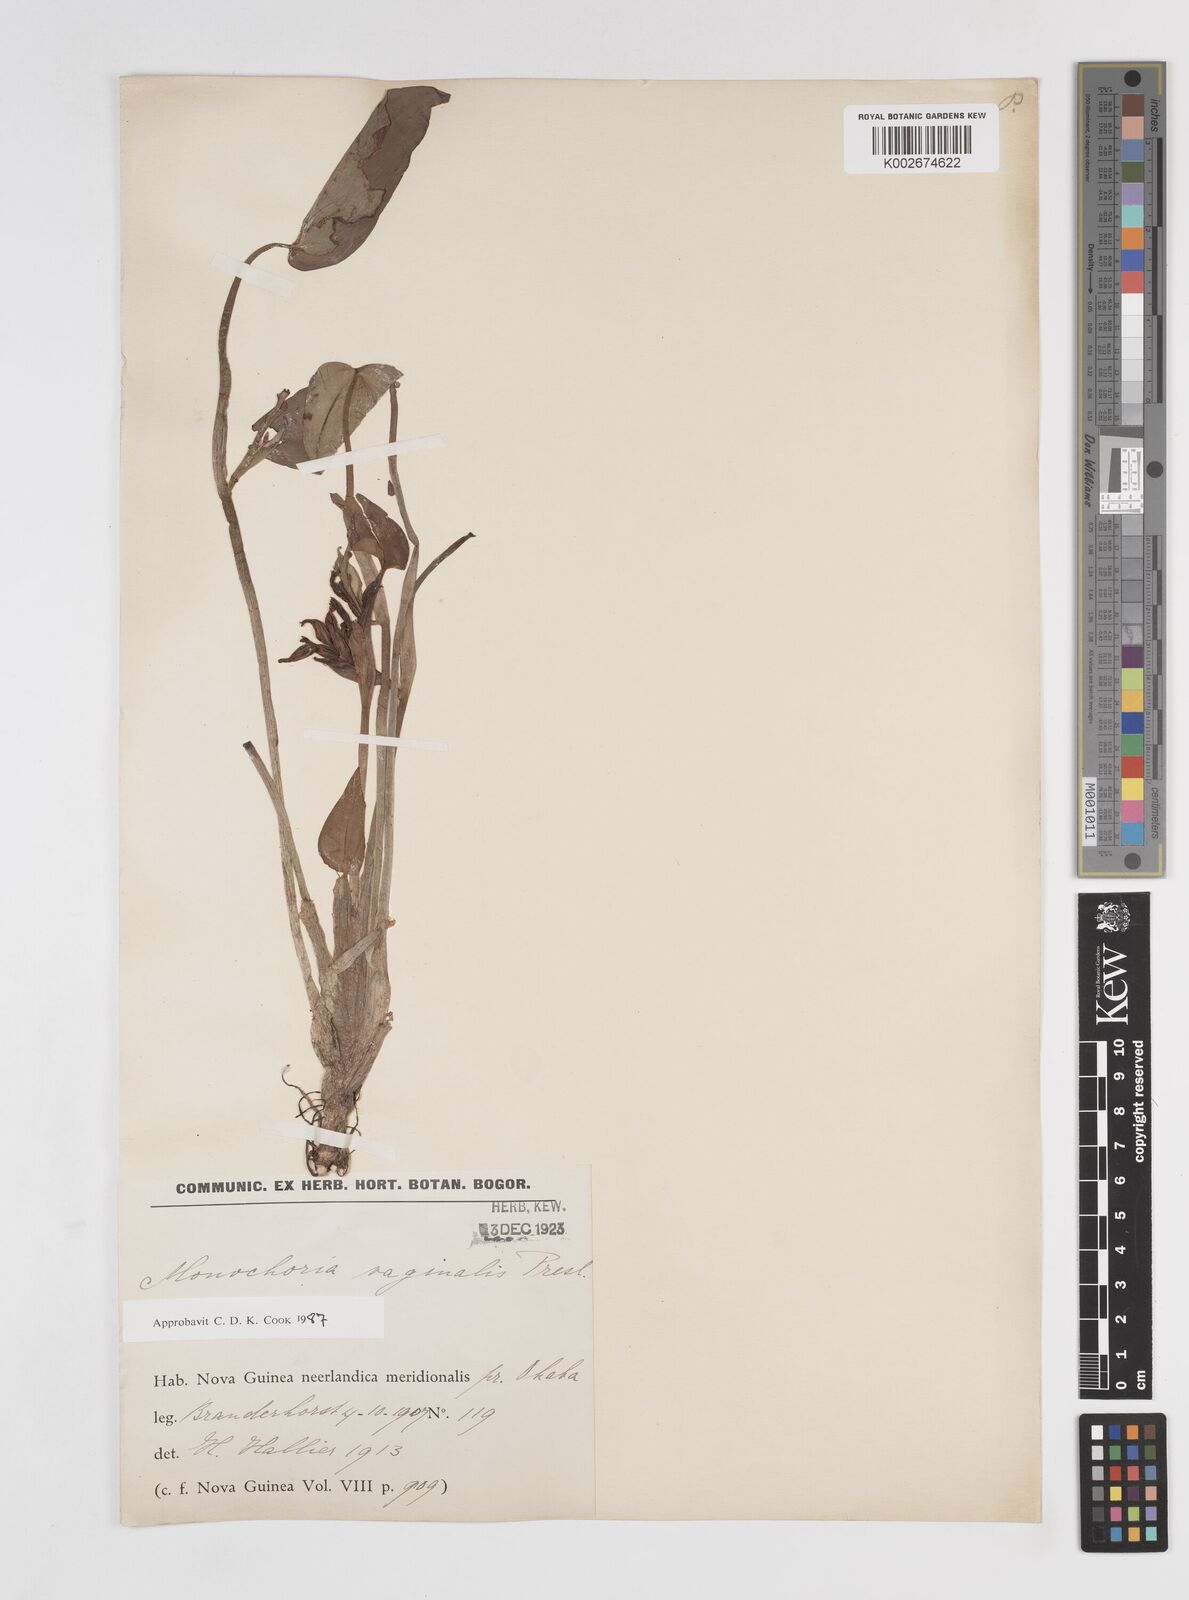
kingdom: Plantae
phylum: Tracheophyta
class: Liliopsida
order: Commelinales
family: Pontederiaceae
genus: Pontederia
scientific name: Pontederia vaginalis
